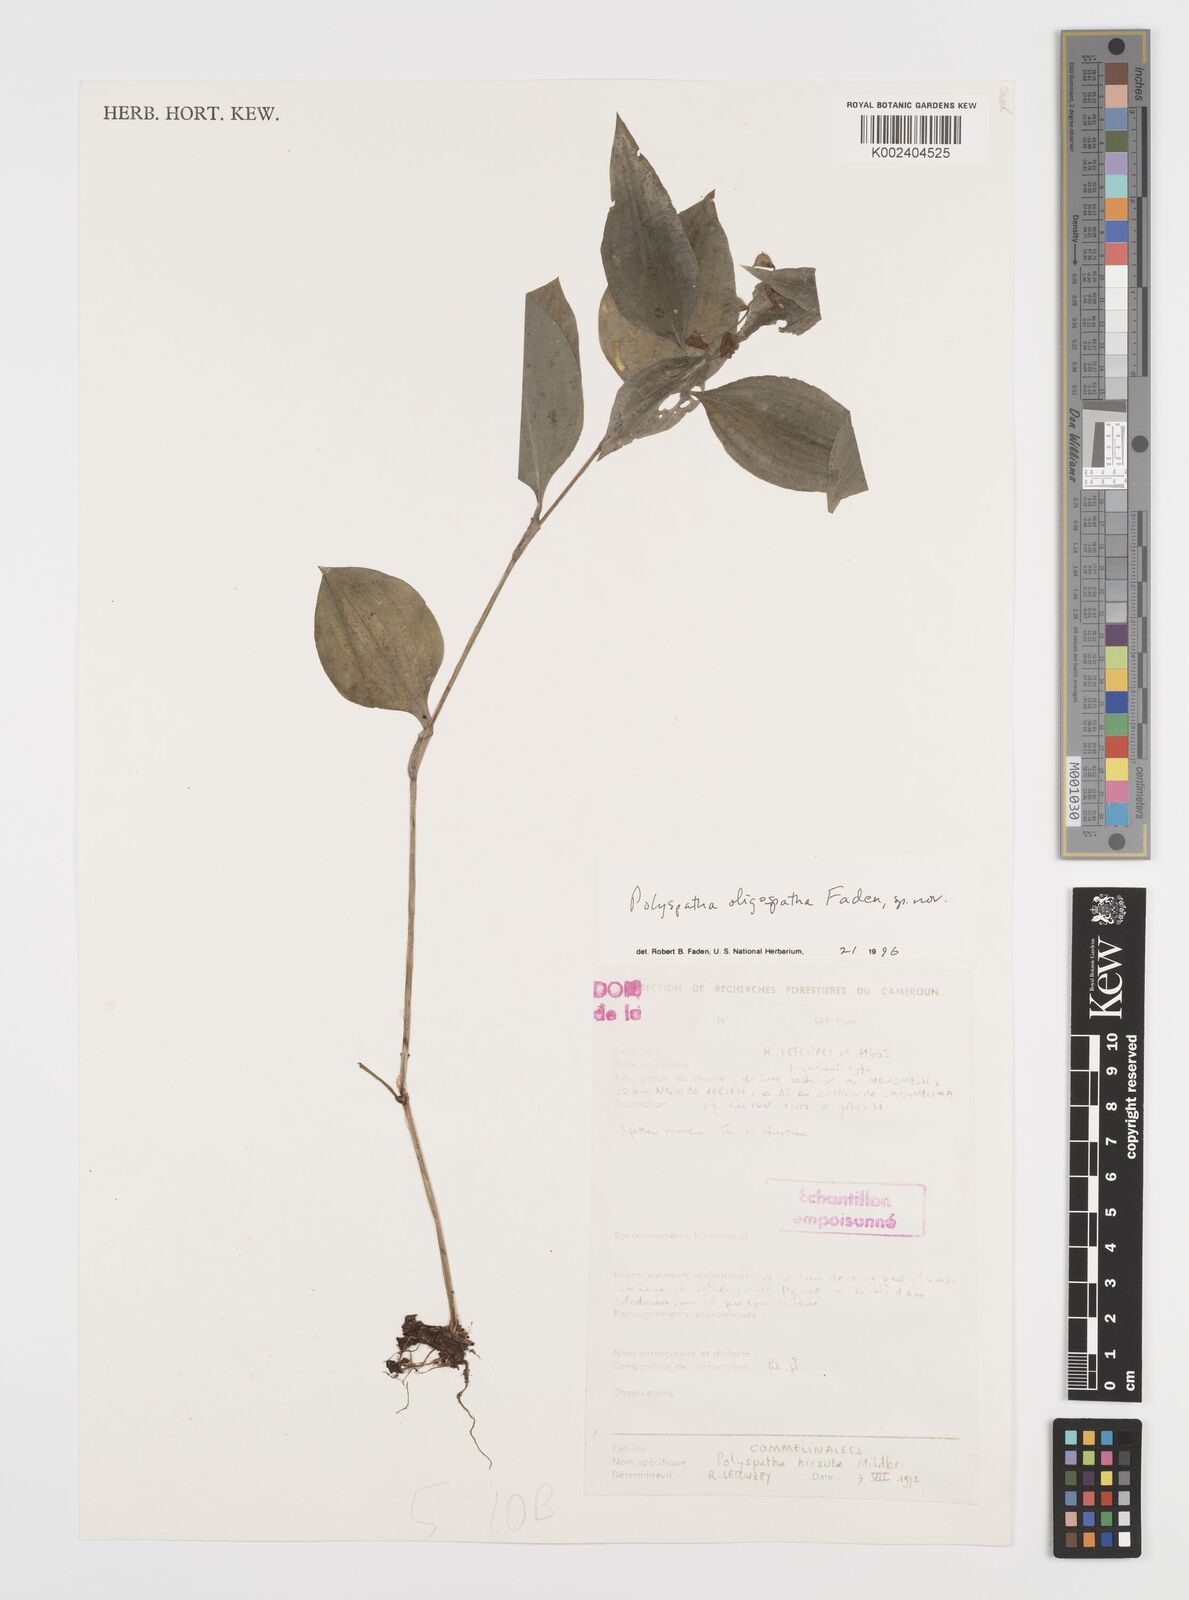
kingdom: Plantae
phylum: Tracheophyta
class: Liliopsida
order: Commelinales
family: Commelinaceae
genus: Polyspatha
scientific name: Polyspatha paniculata
